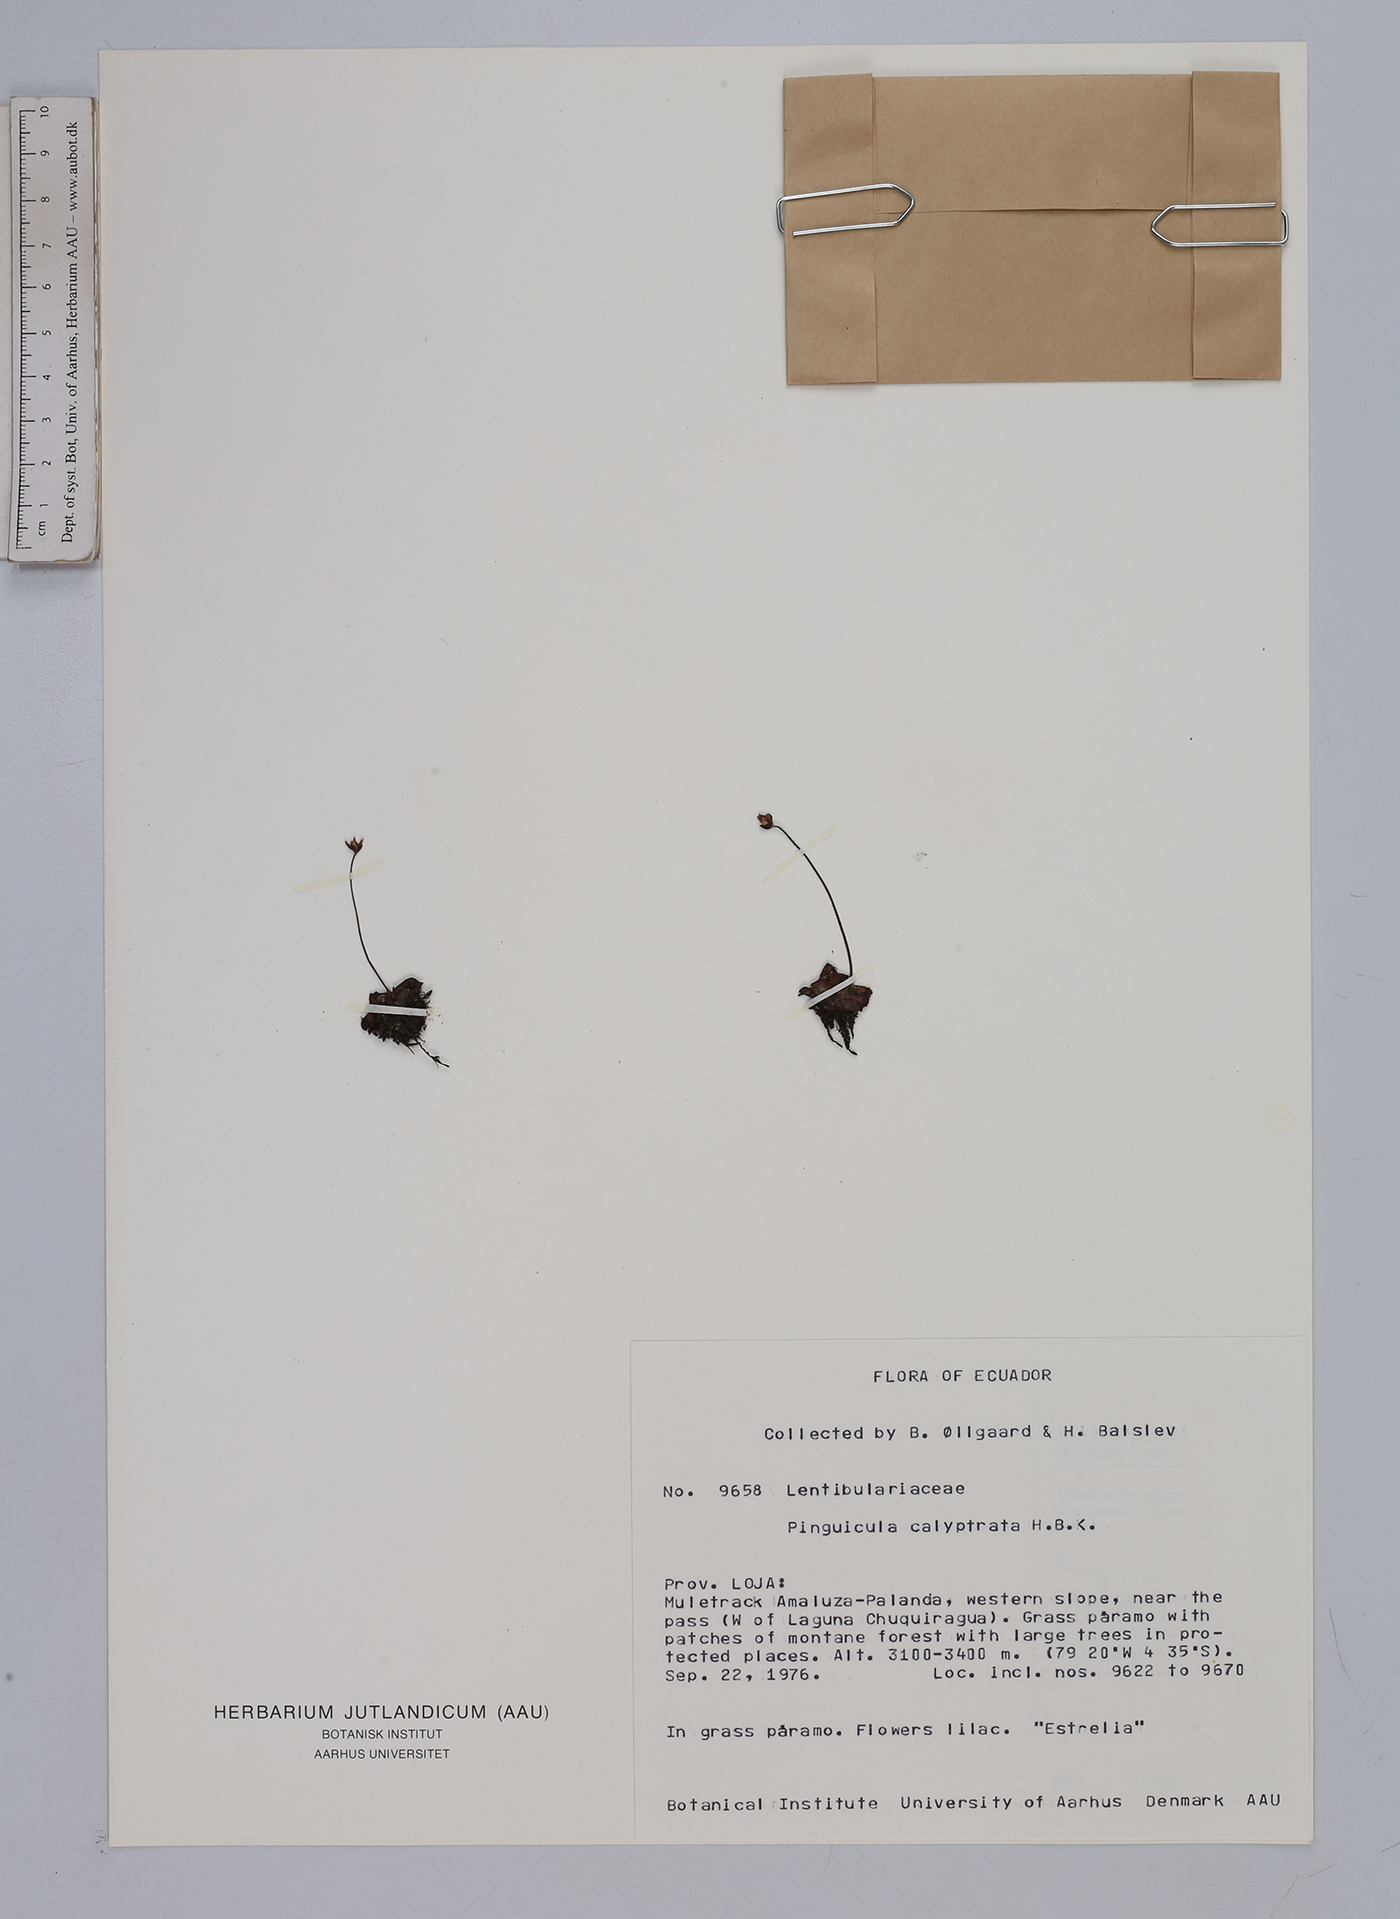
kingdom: Plantae
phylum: Tracheophyta
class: Magnoliopsida
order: Lamiales
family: Lentibulariaceae
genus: Pinguicula
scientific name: Pinguicula calyptrata
